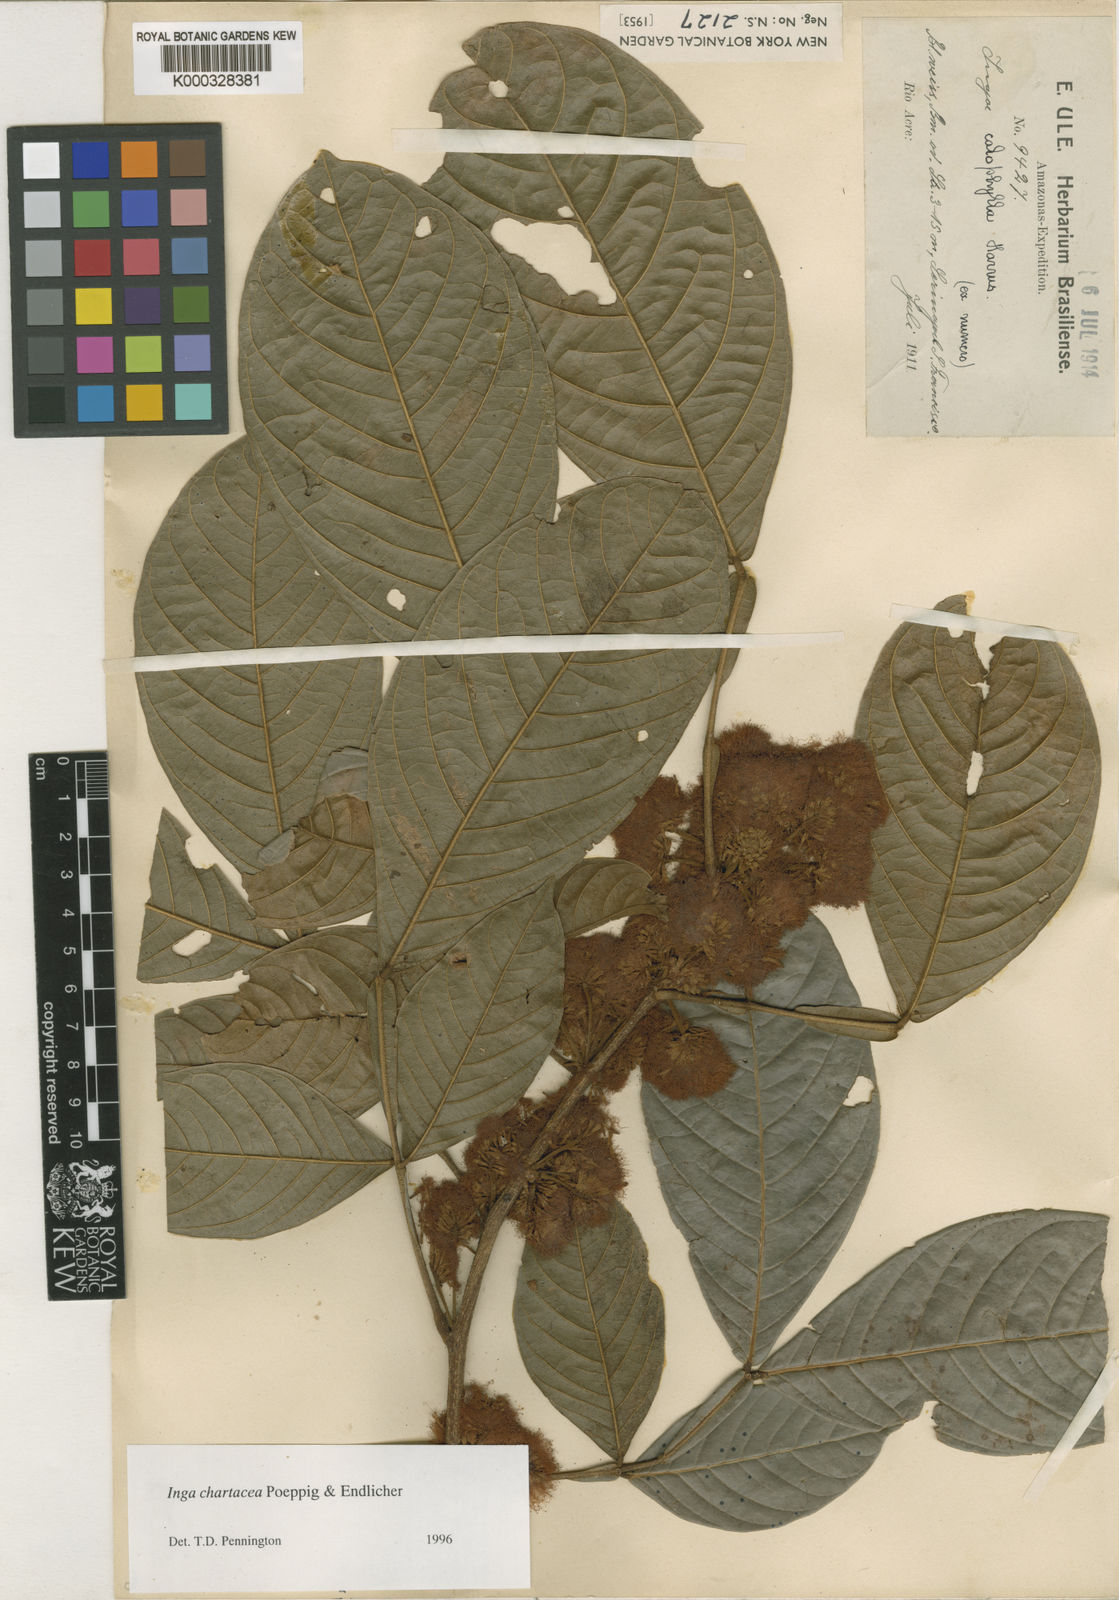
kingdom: Plantae
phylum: Tracheophyta
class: Magnoliopsida
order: Fabales
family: Fabaceae
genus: Inga
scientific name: Inga chartacea
